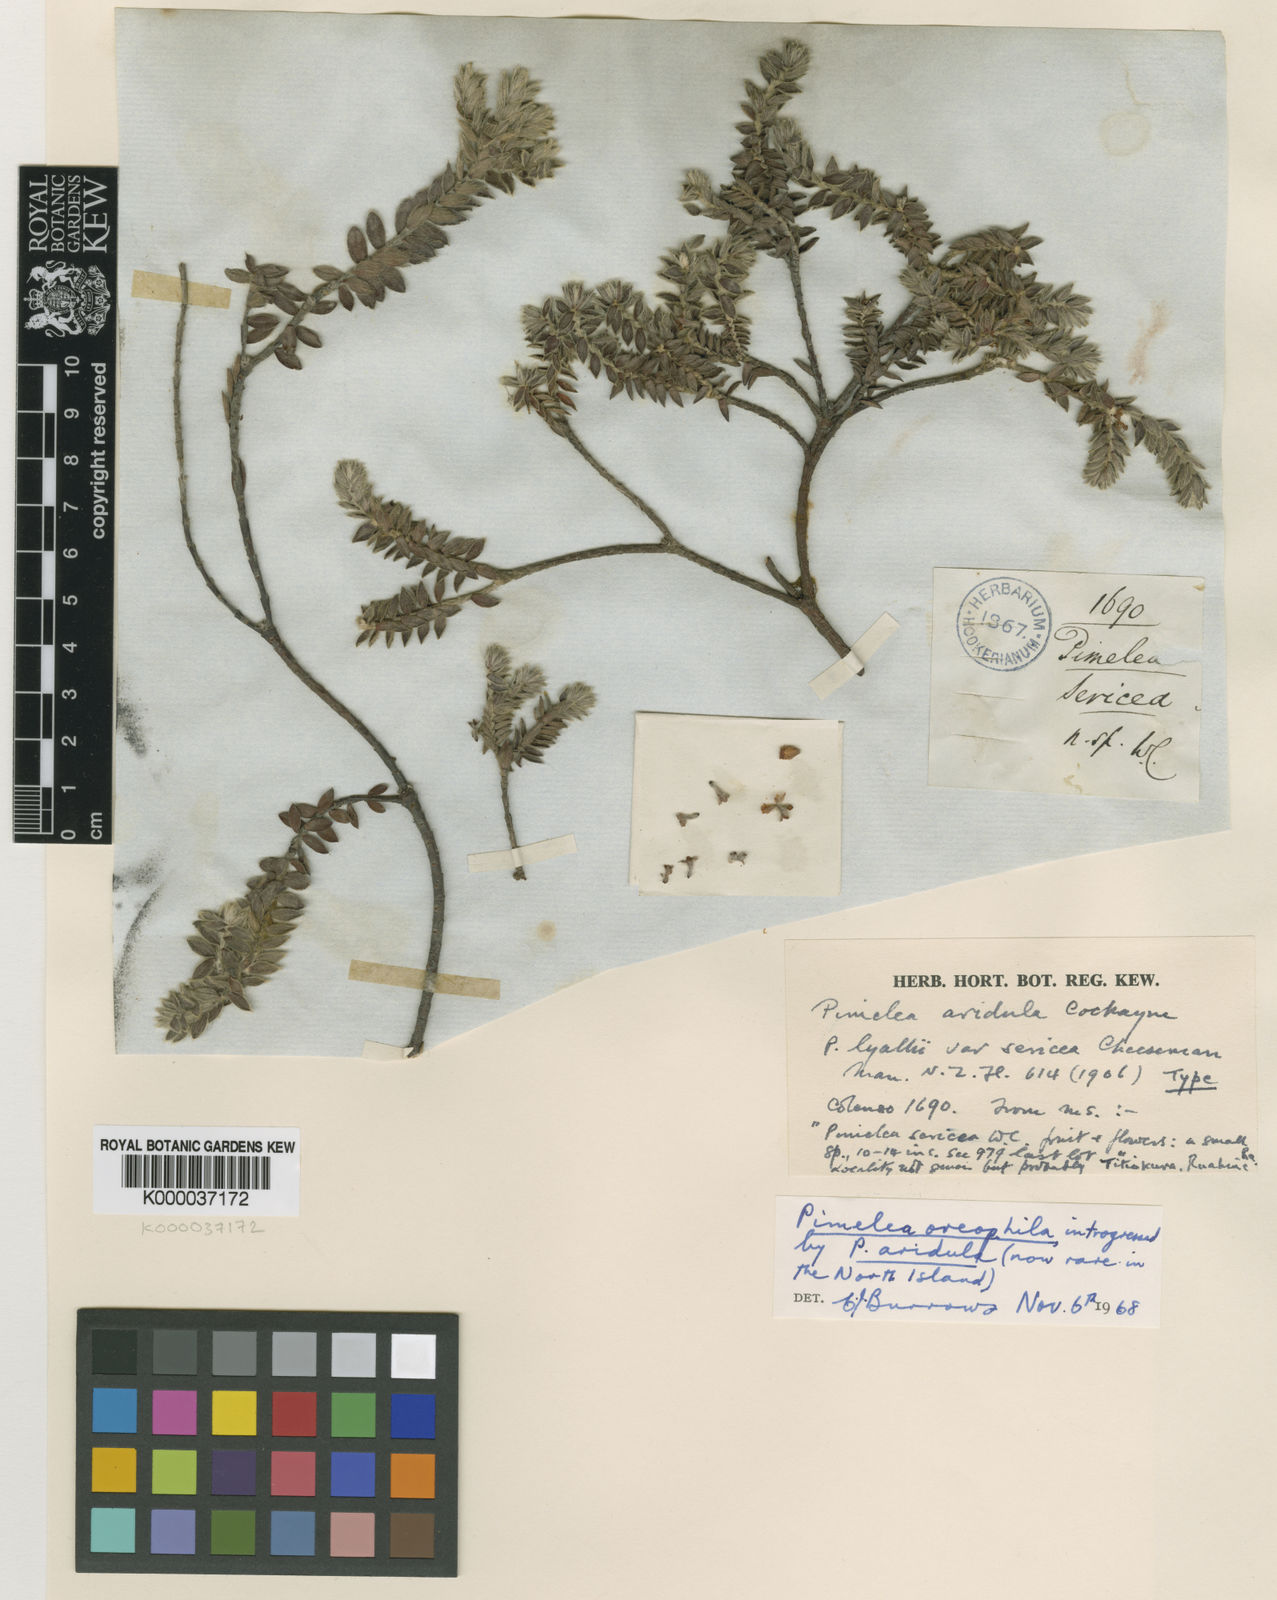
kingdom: Plantae
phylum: Tracheophyta
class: Magnoliopsida
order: Malvales
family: Thymelaeaceae
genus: Pimelea
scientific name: Pimelea
